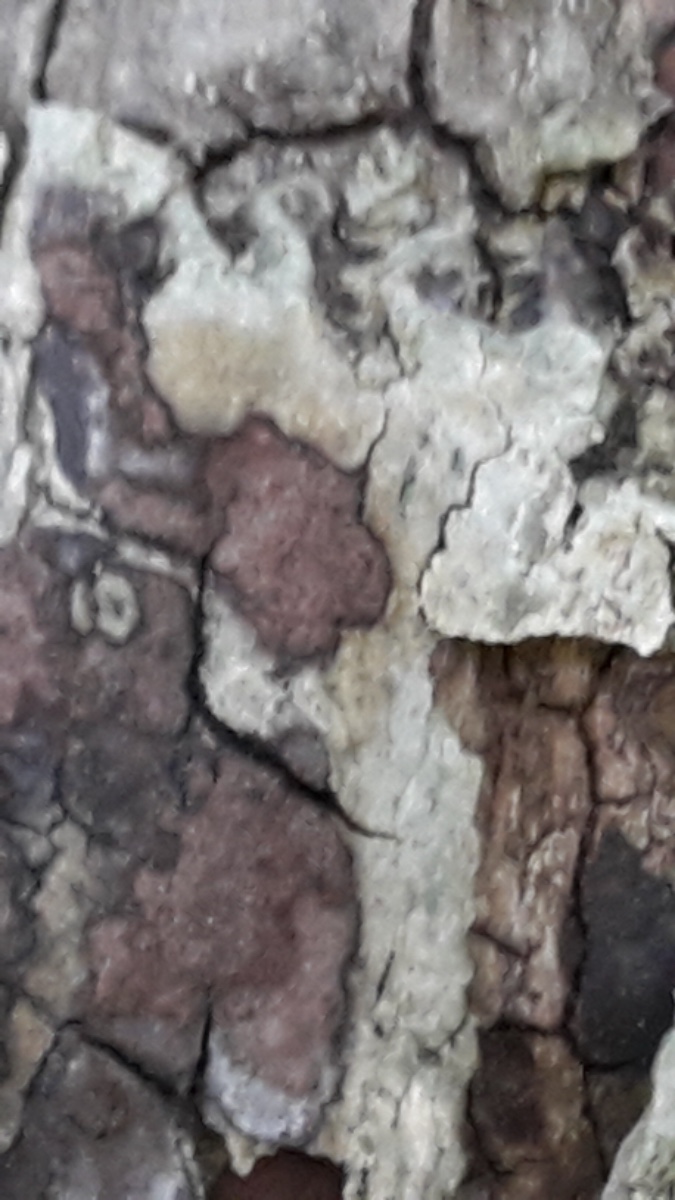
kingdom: Fungi
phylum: Ascomycota
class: Sordariomycetes
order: Xylariales
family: Hypoxylaceae
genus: Hypoxylon
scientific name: Hypoxylon petriniae
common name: nedsænket kulbær
